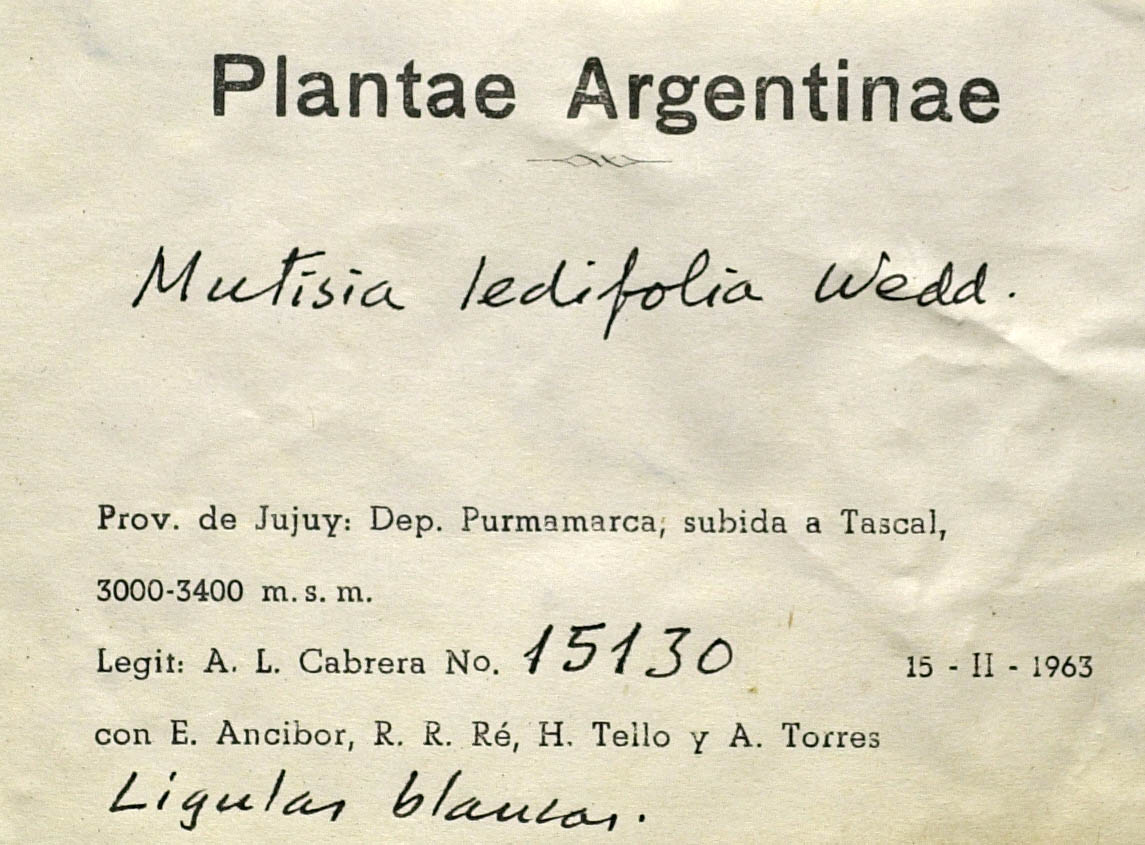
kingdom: Plantae
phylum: Tracheophyta
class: Magnoliopsida
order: Asterales
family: Asteraceae
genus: Mutisia
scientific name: Mutisia ledifolia
